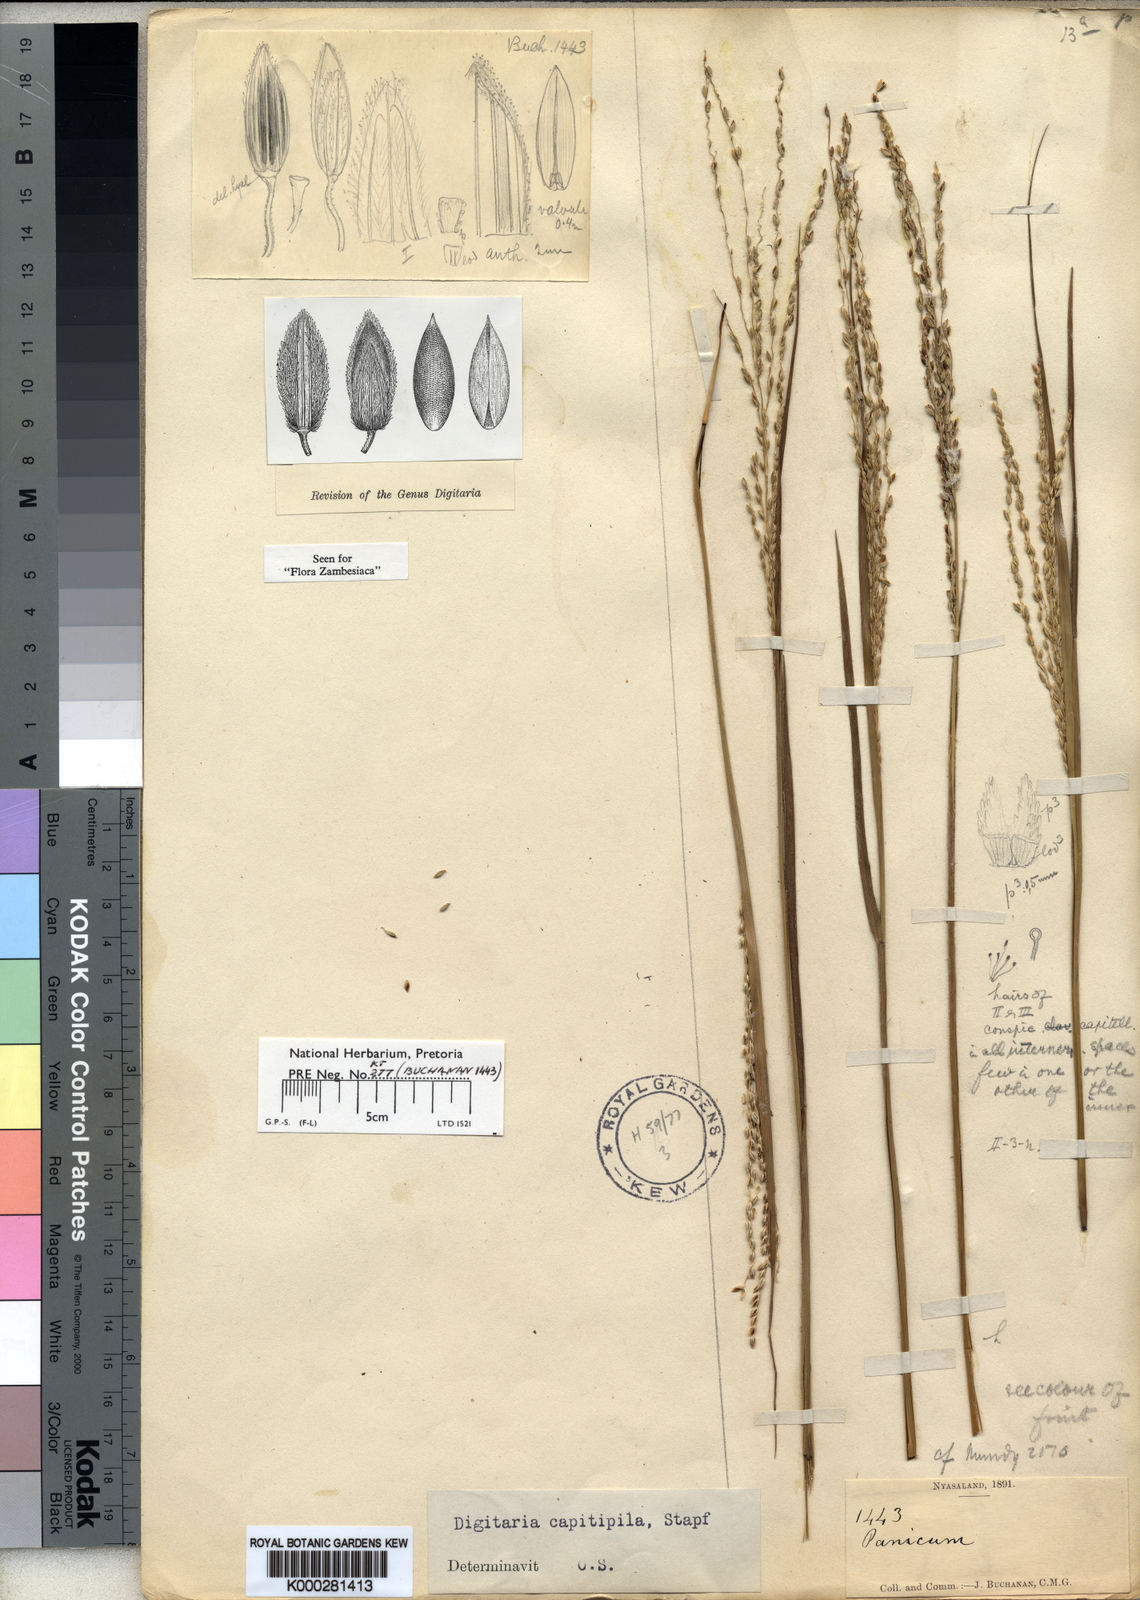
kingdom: Plantae
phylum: Tracheophyta
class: Liliopsida
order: Poales
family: Poaceae
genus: Digitaria
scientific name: Digitaria compressa
